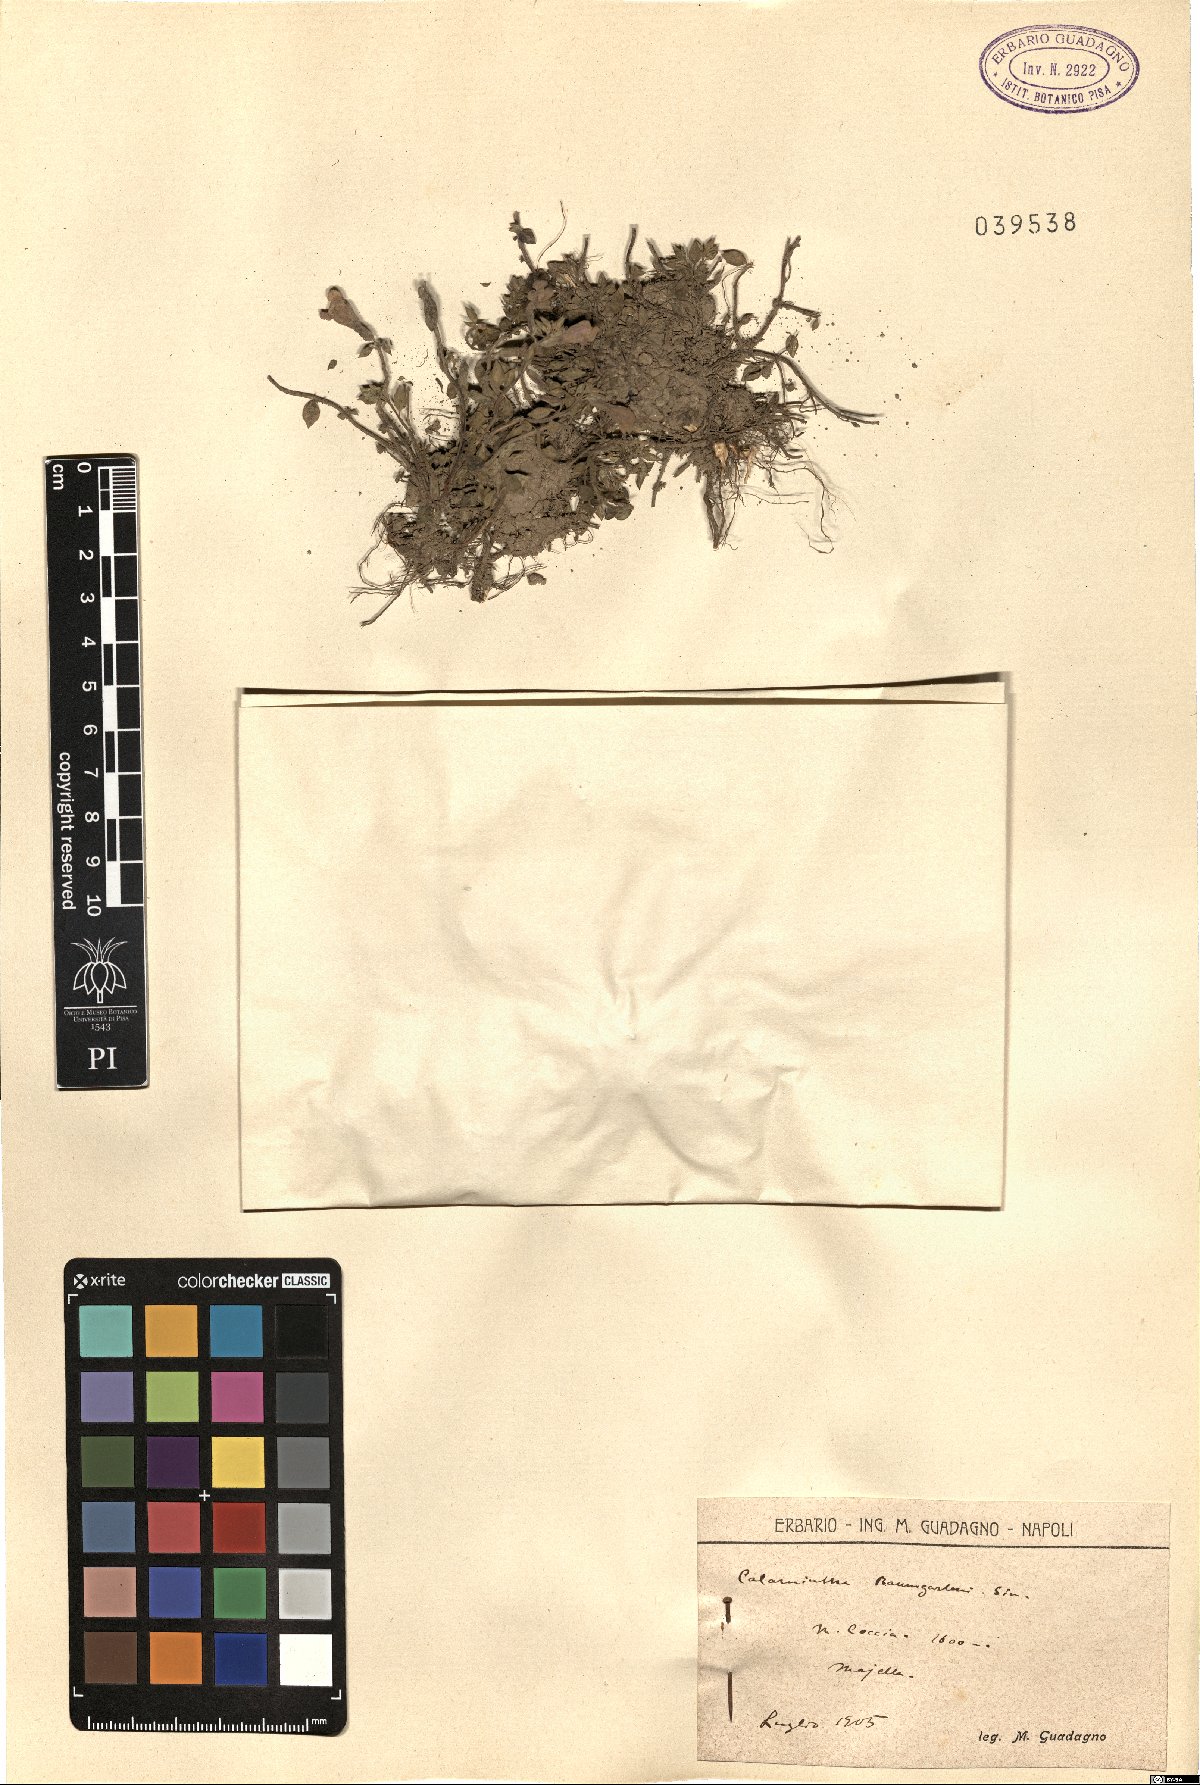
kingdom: Plantae
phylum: Tracheophyta
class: Magnoliopsida
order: Lamiales
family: Lamiaceae
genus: Clinopodium
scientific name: Clinopodium alpinum
